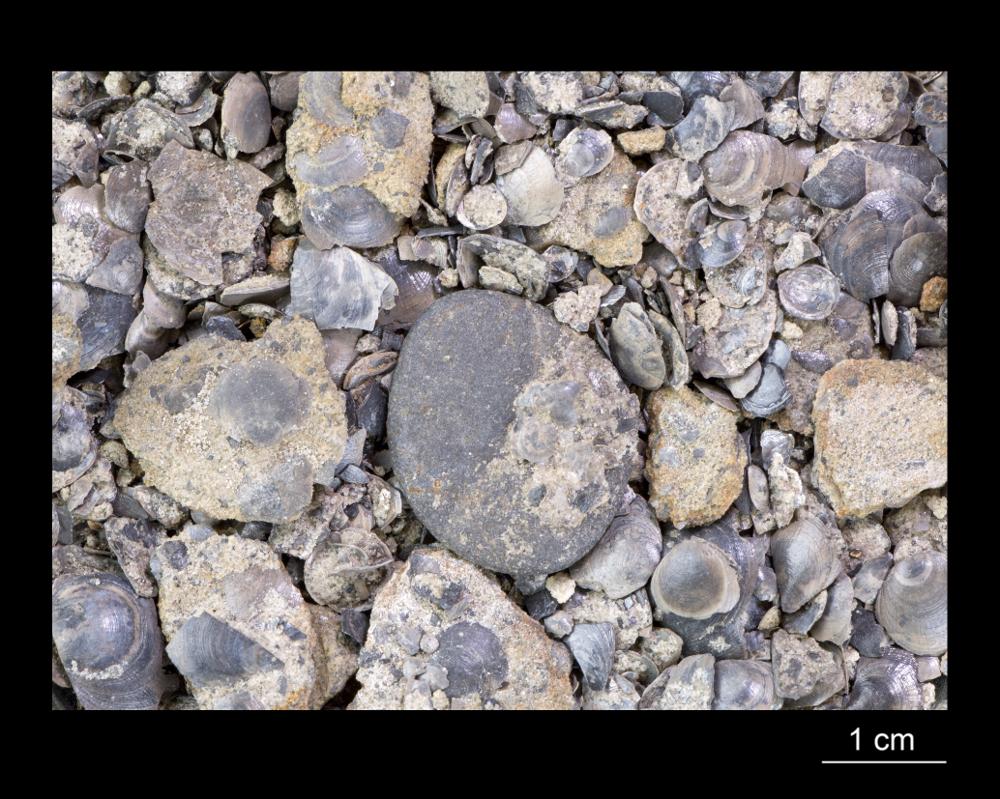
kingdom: Animalia
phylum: Brachiopoda
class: Lingulata
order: Lingulida
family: Obolidae
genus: Obolus
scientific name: Obolus
